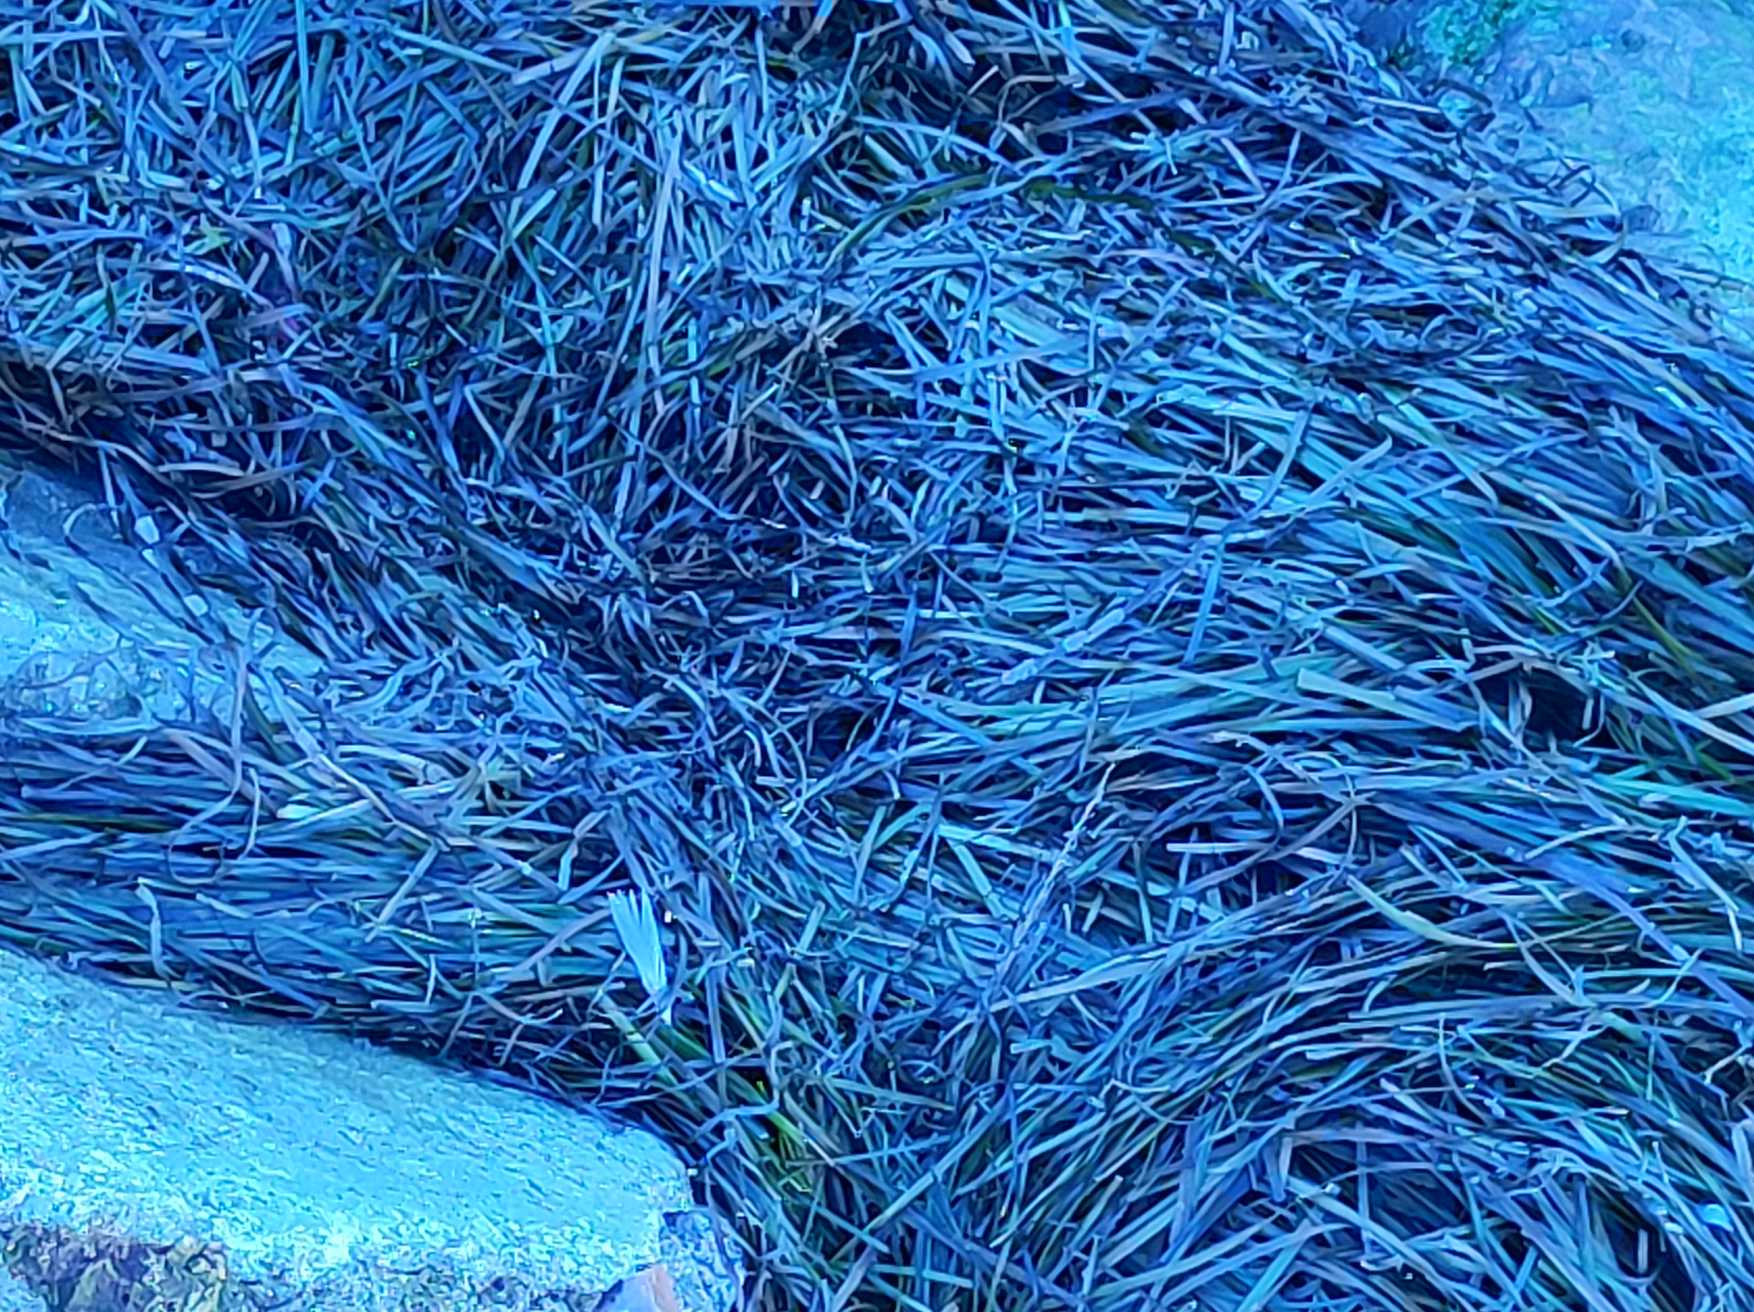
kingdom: Plantae
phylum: Tracheophyta
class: Liliopsida
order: Alismatales
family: Zosteraceae
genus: Zostera
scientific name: Zostera marina
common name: Almindelig bændeltang
